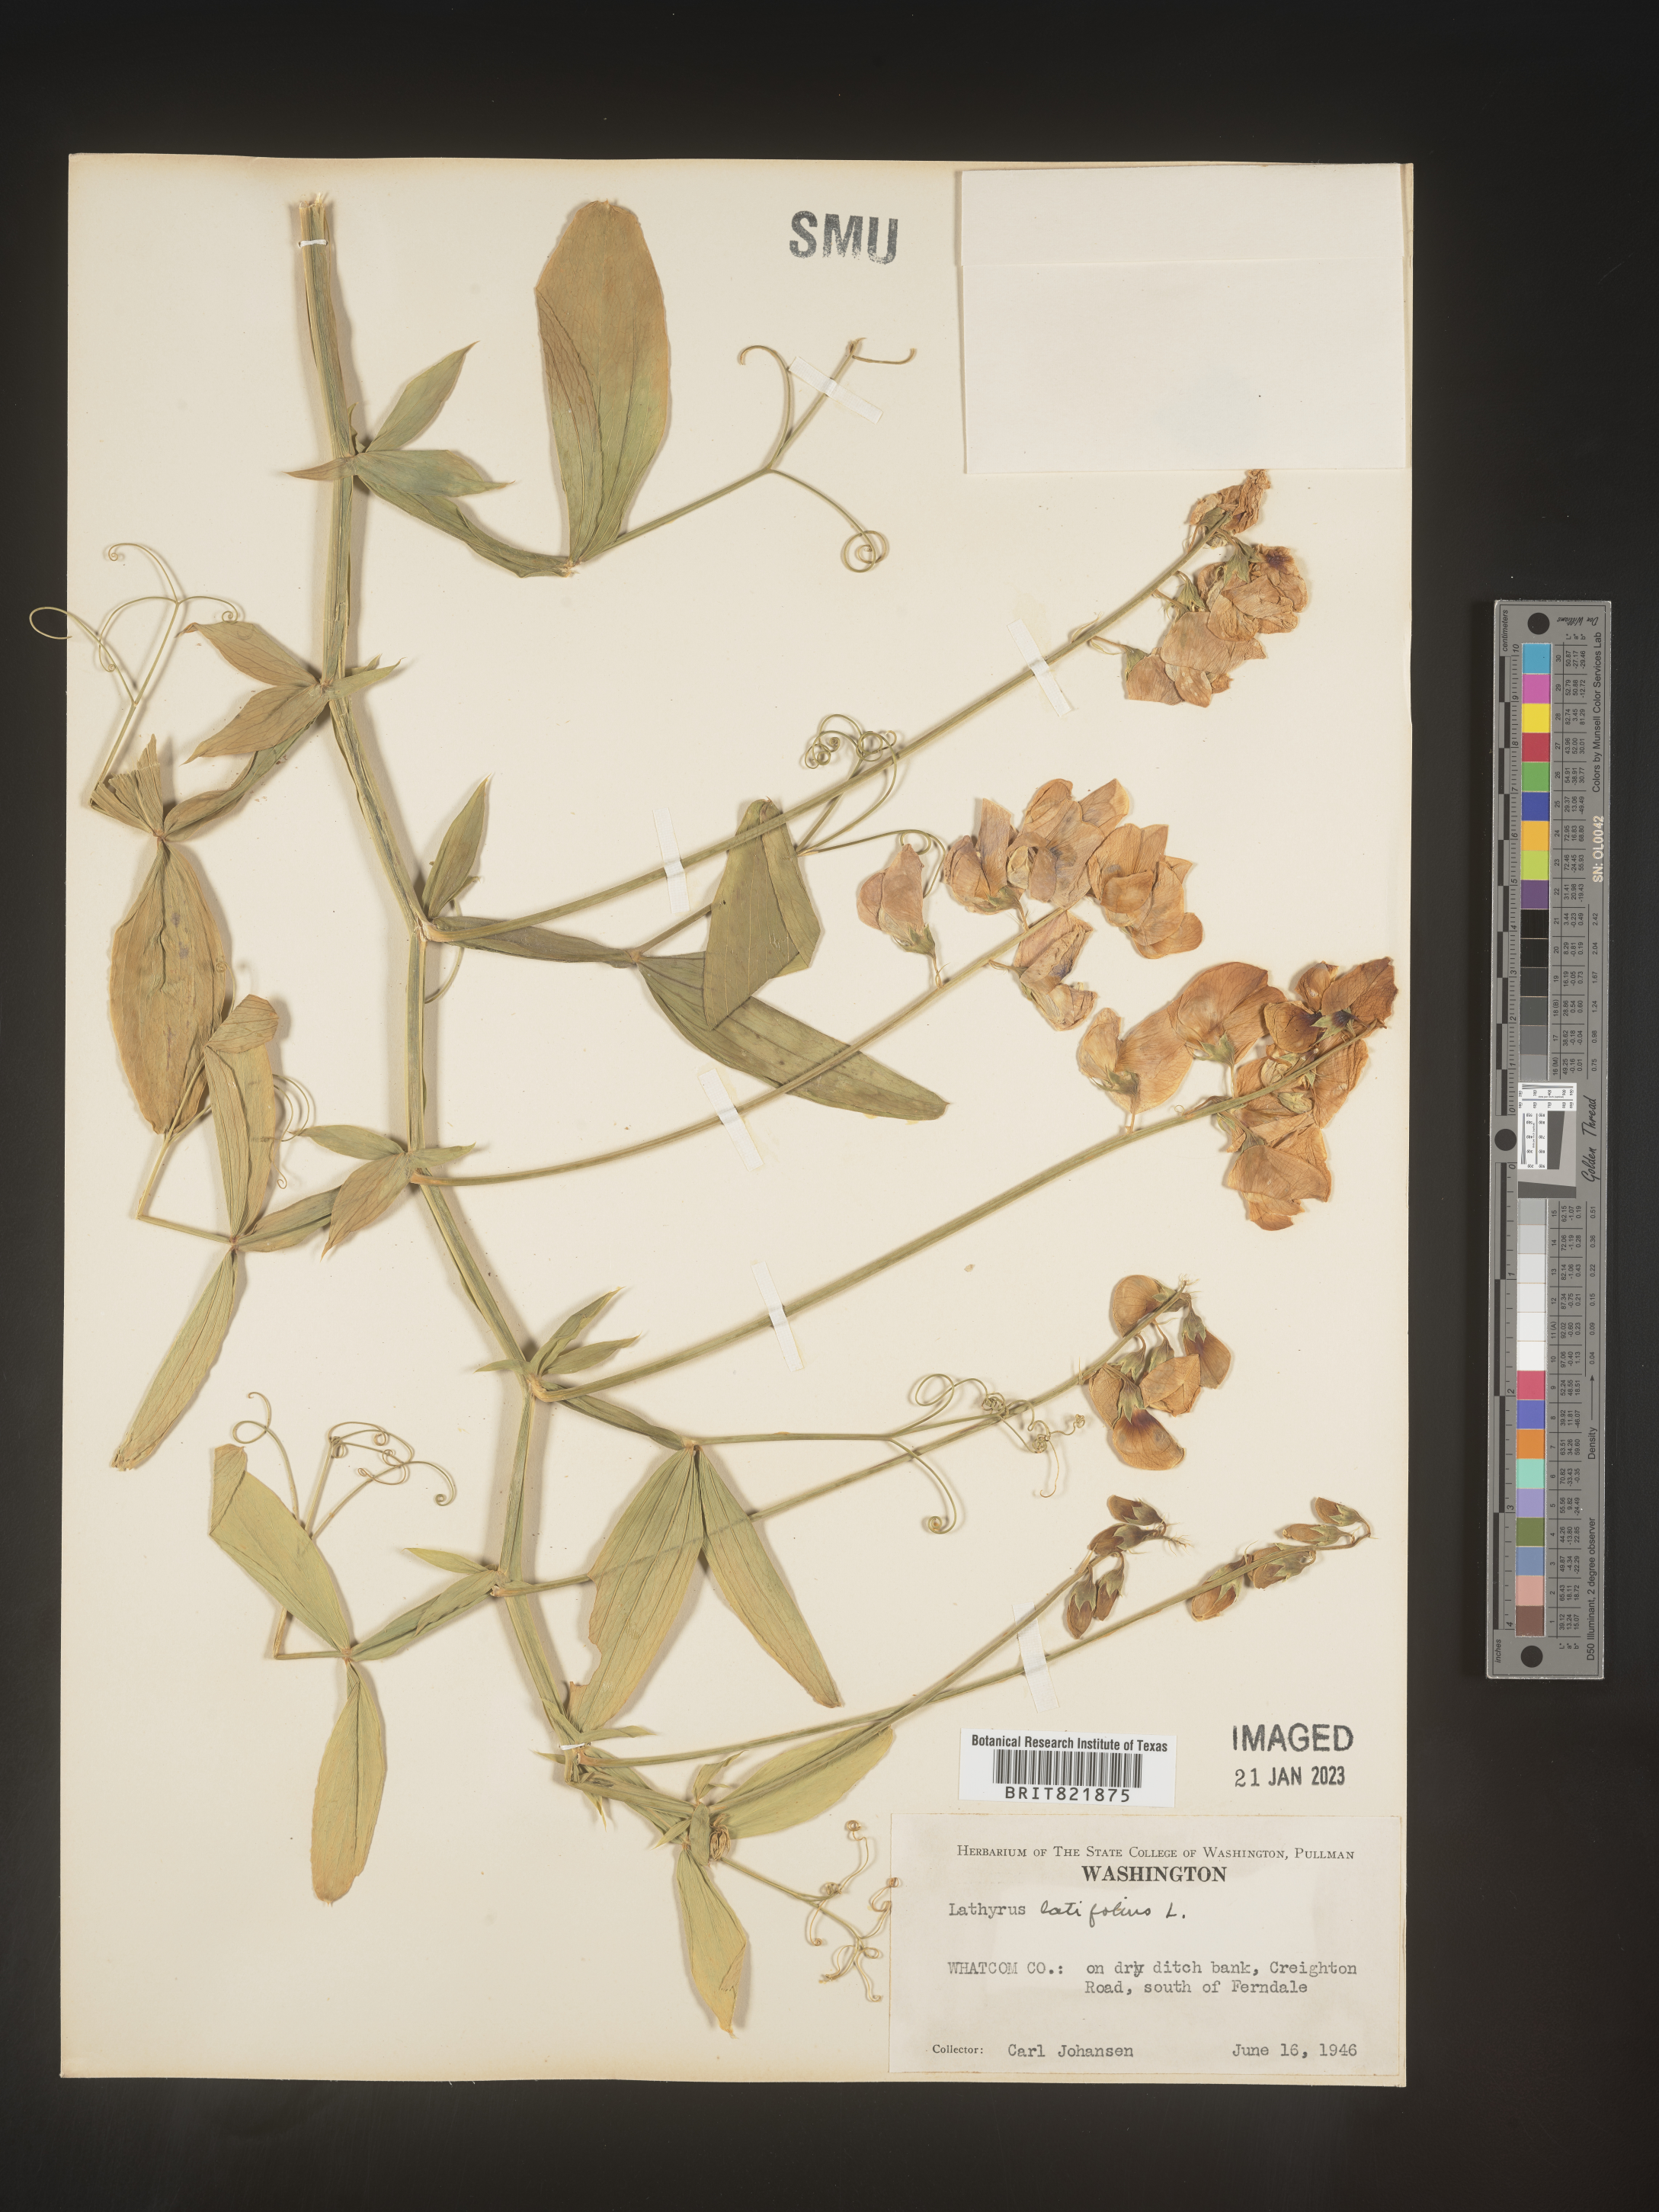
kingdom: Plantae
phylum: Tracheophyta
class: Magnoliopsida
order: Fabales
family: Fabaceae
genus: Lathyrus
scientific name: Lathyrus latifolius
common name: Perennial pea
